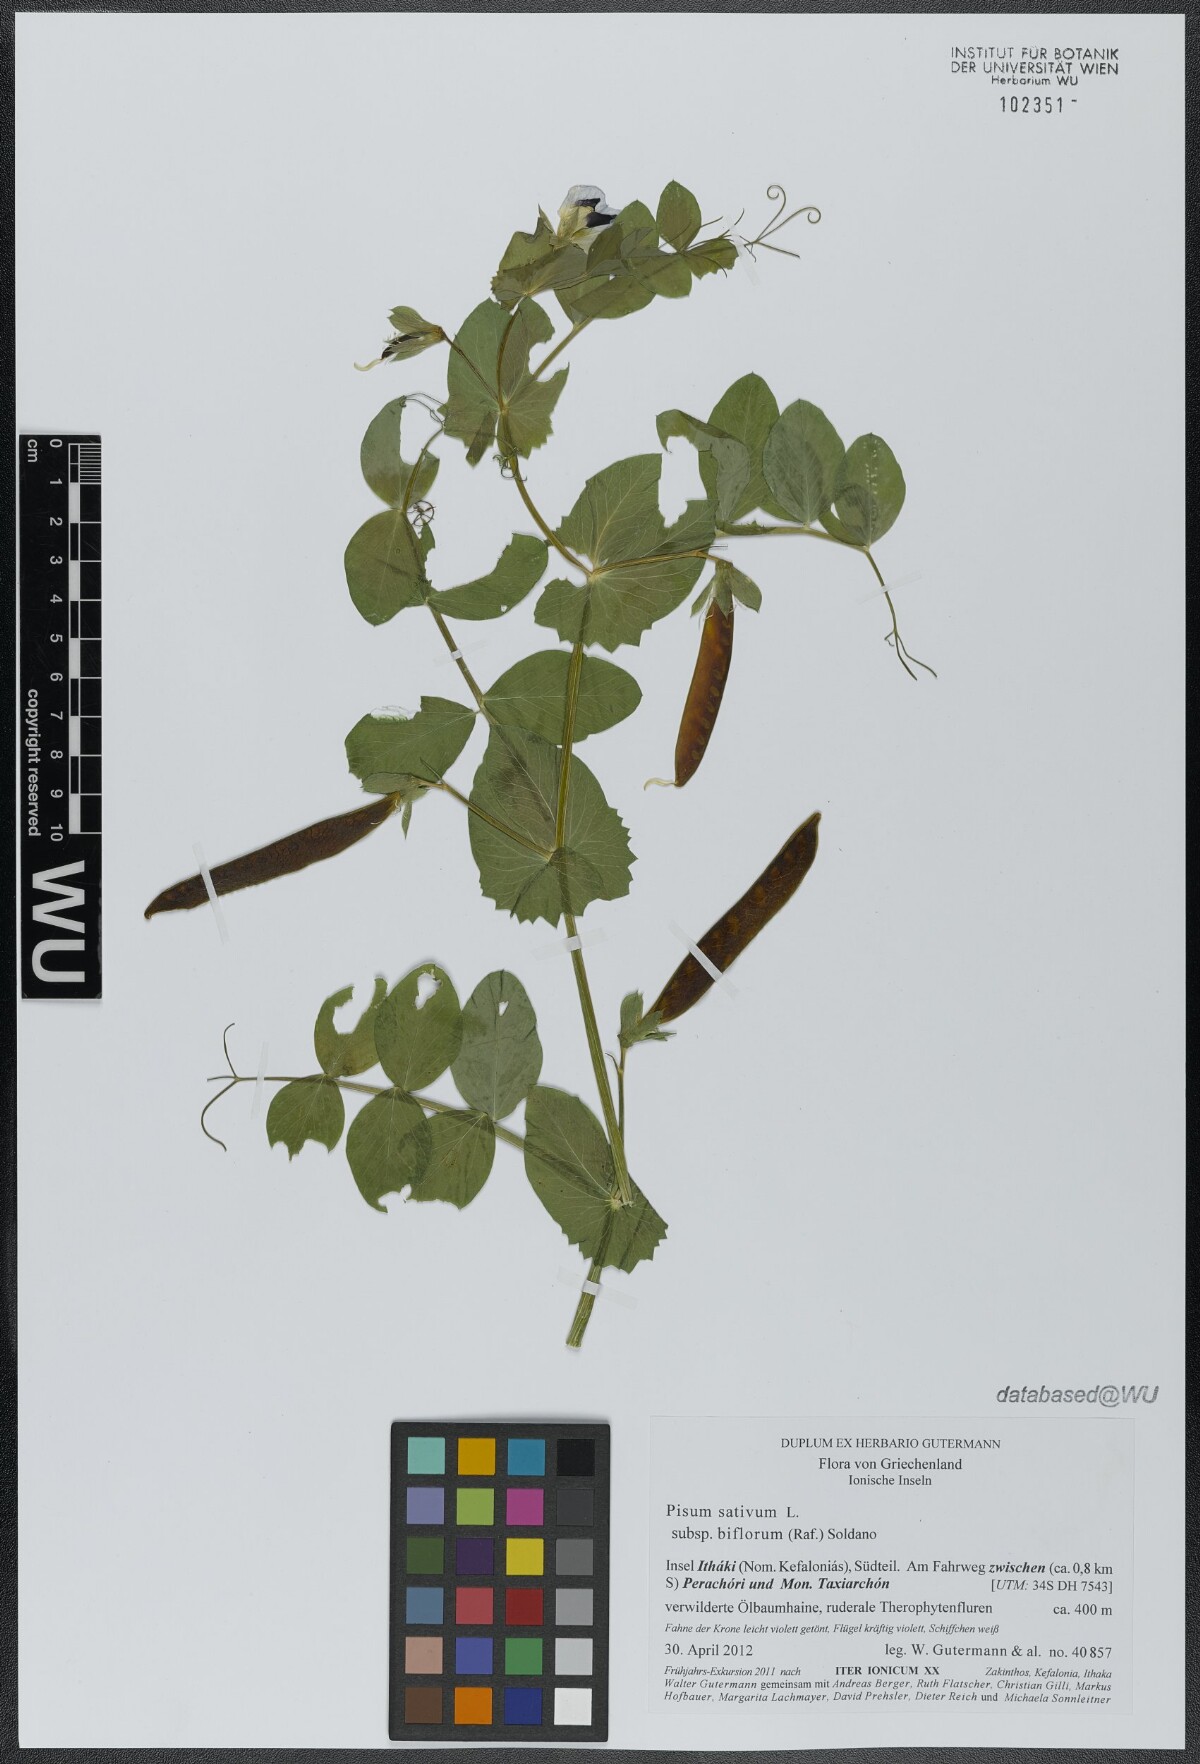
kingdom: Plantae
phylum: Tracheophyta
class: Magnoliopsida
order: Fabales
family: Fabaceae
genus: Lathyrus
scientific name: Lathyrus oleraceus
